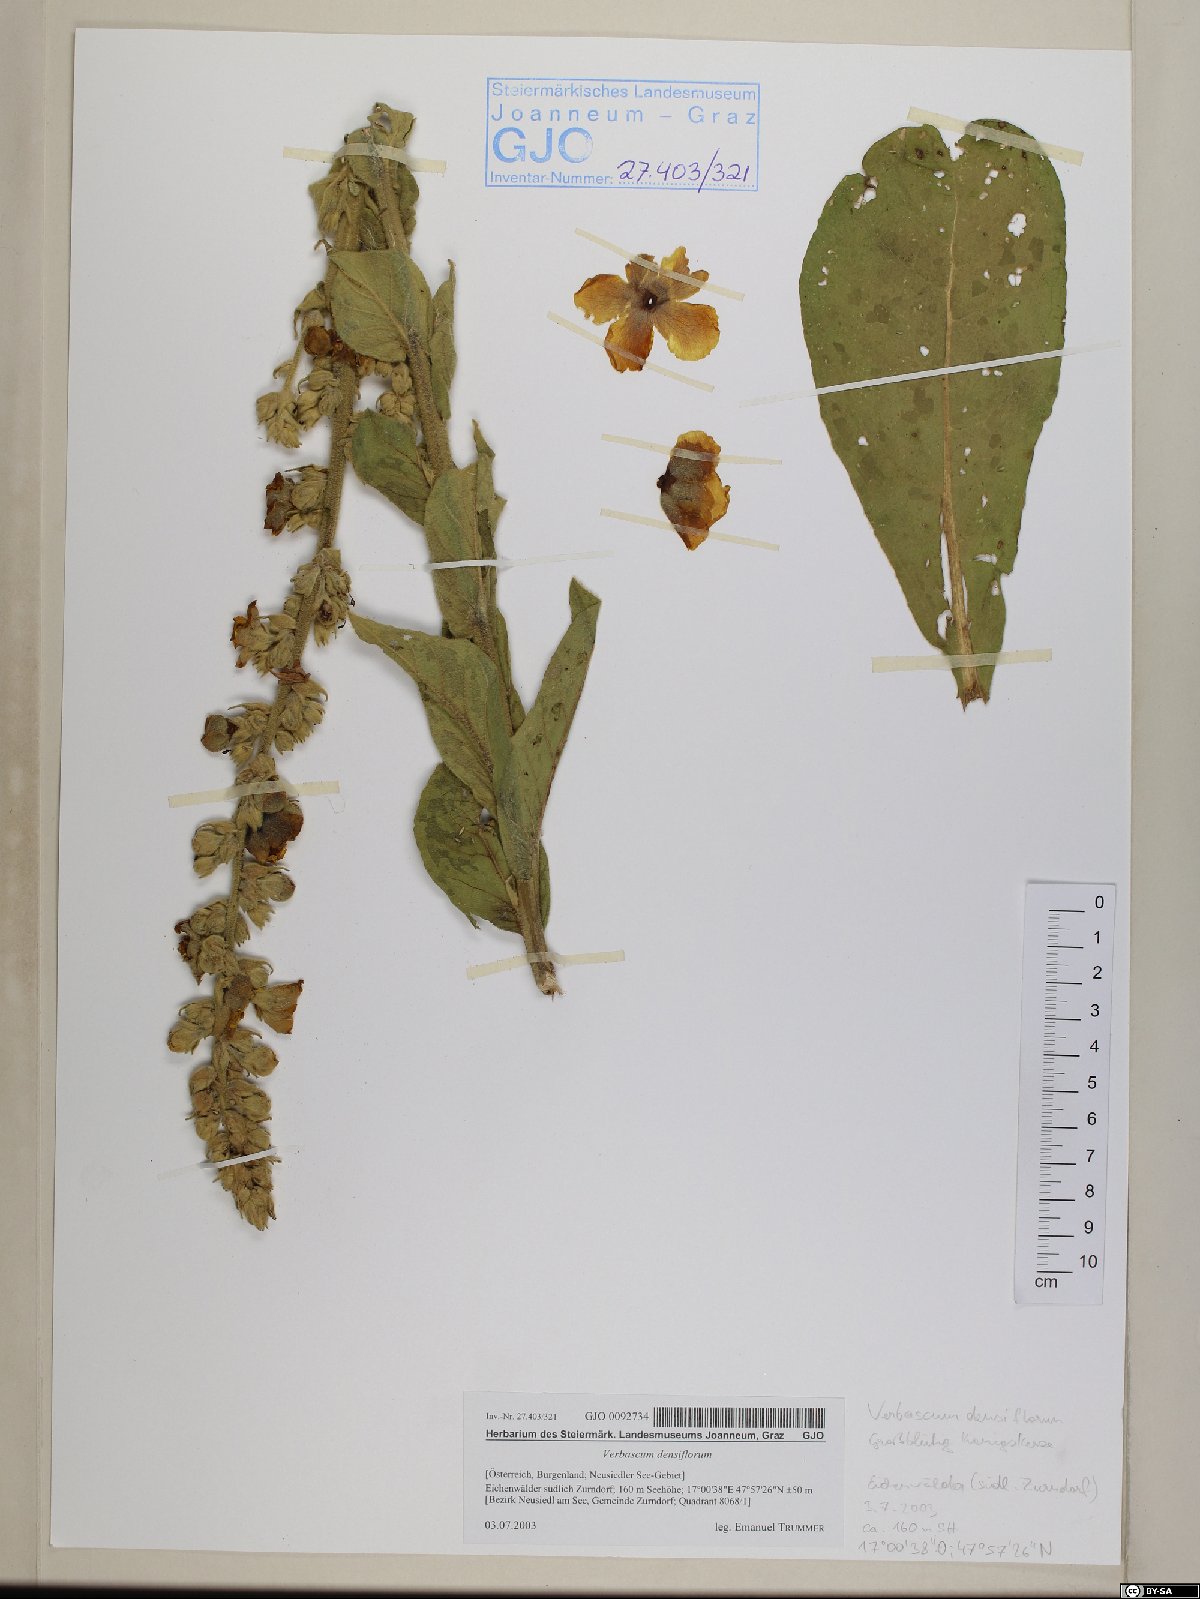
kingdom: Plantae
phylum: Tracheophyta
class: Magnoliopsida
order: Lamiales
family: Scrophulariaceae
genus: Verbascum
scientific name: Verbascum densiflorum
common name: Dense-flowered mullein
